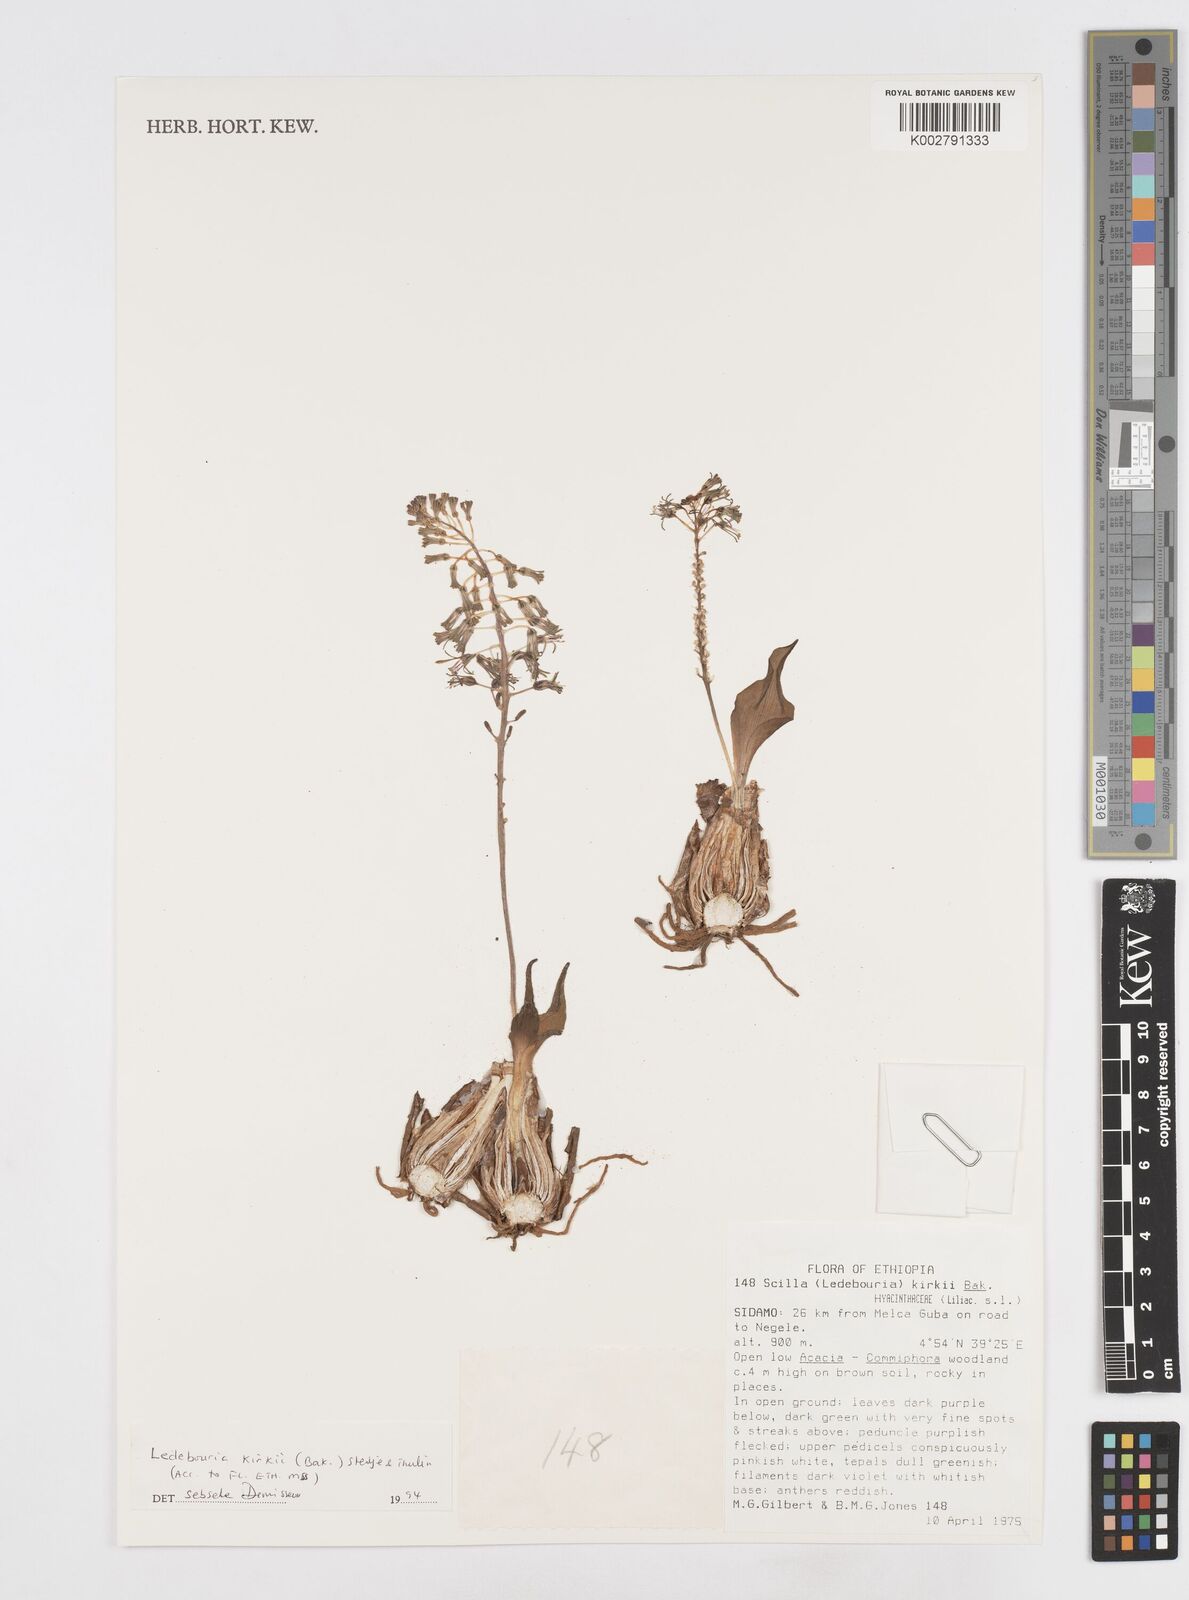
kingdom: Plantae
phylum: Tracheophyta
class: Liliopsida
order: Asparagales
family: Asparagaceae
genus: Ledebouria
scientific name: Ledebouria kirkii
